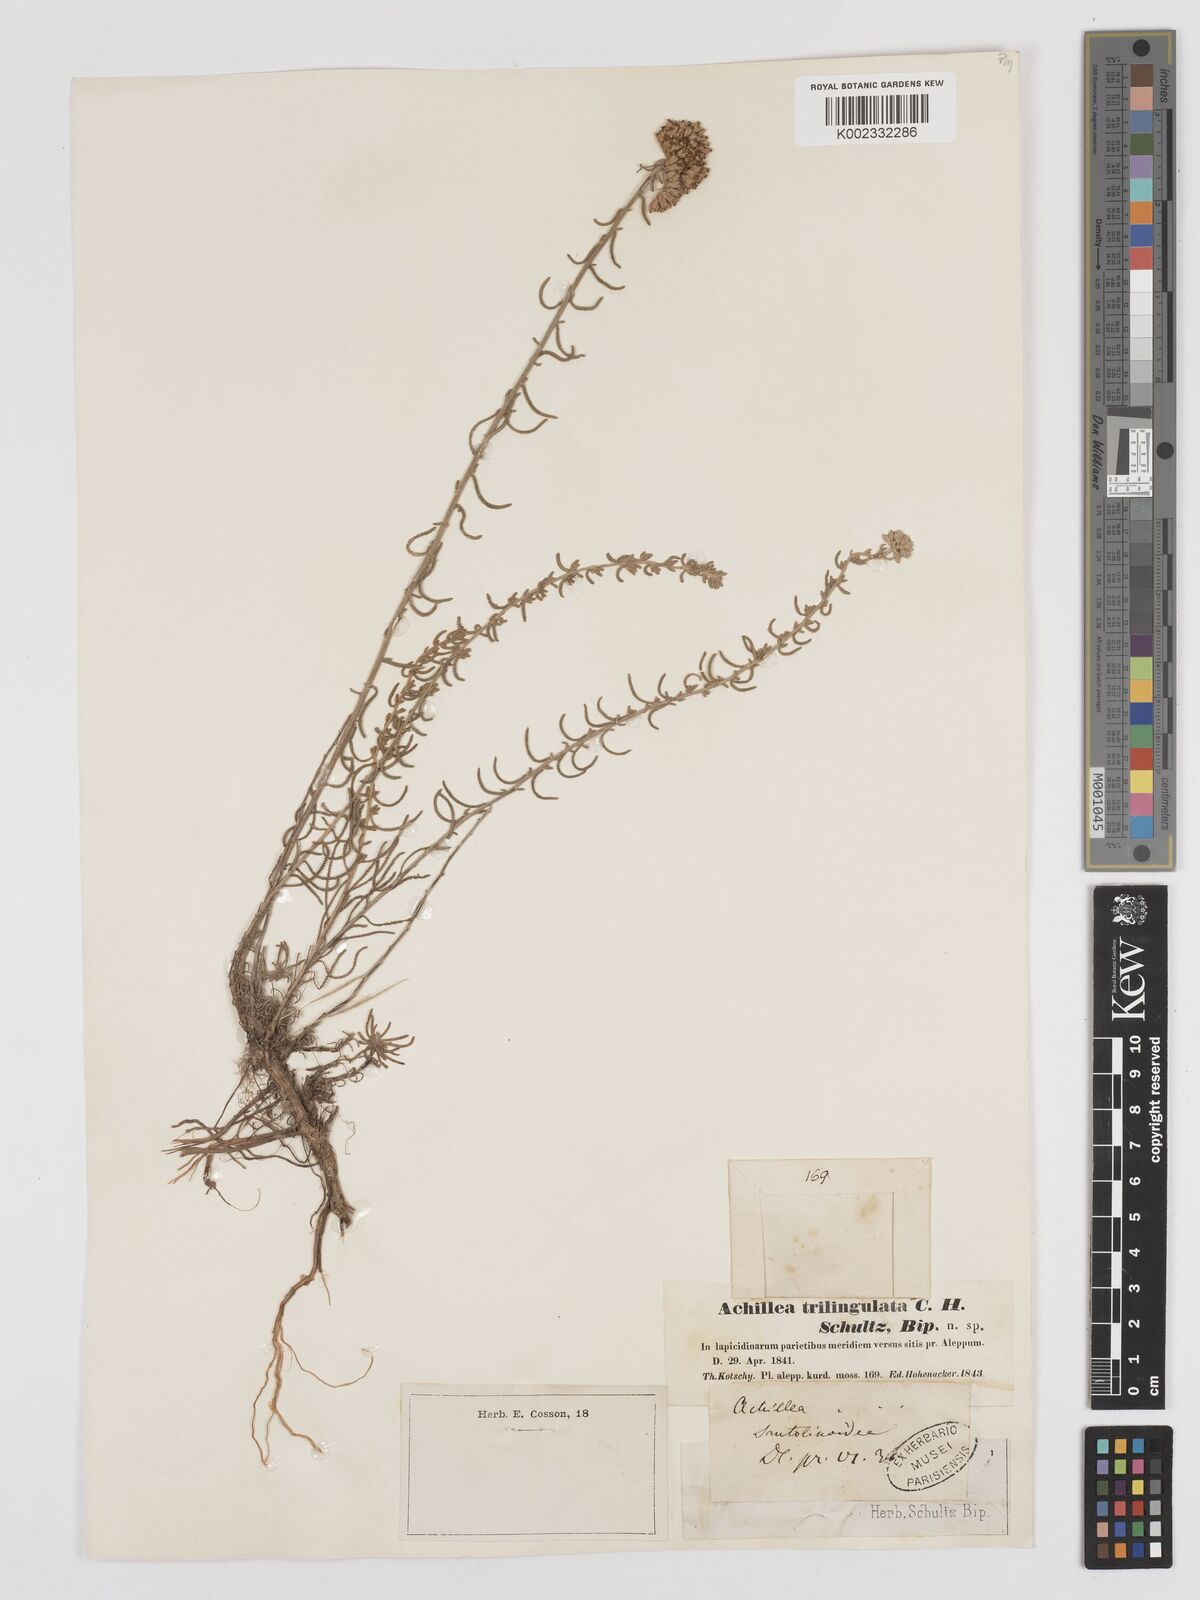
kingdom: Plantae
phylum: Tracheophyta
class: Magnoliopsida
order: Asterales
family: Asteraceae
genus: Achillea
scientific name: Achillea aleppica
